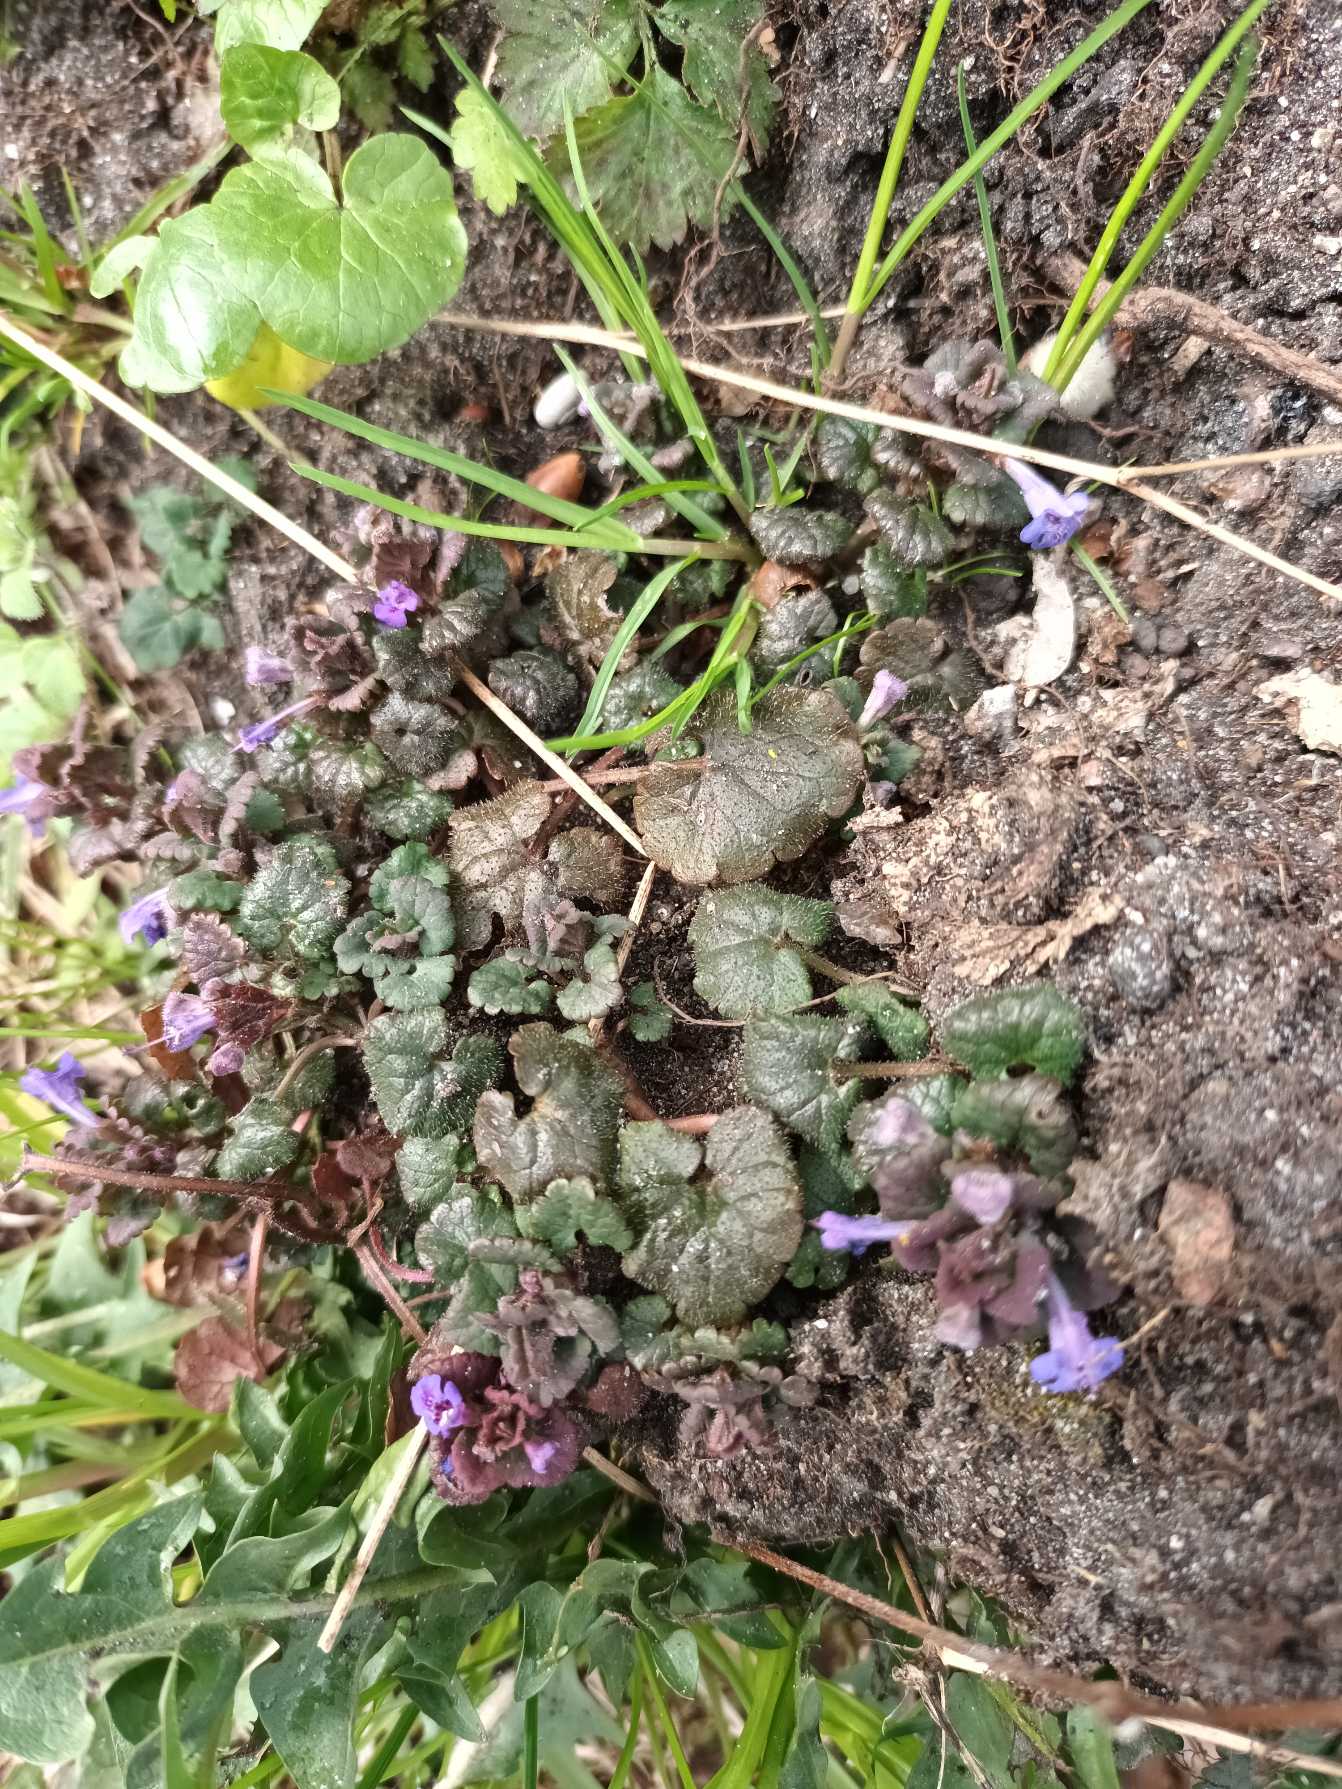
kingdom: Plantae
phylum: Tracheophyta
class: Magnoliopsida
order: Lamiales
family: Lamiaceae
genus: Glechoma
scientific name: Glechoma hederacea
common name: Korsknap
